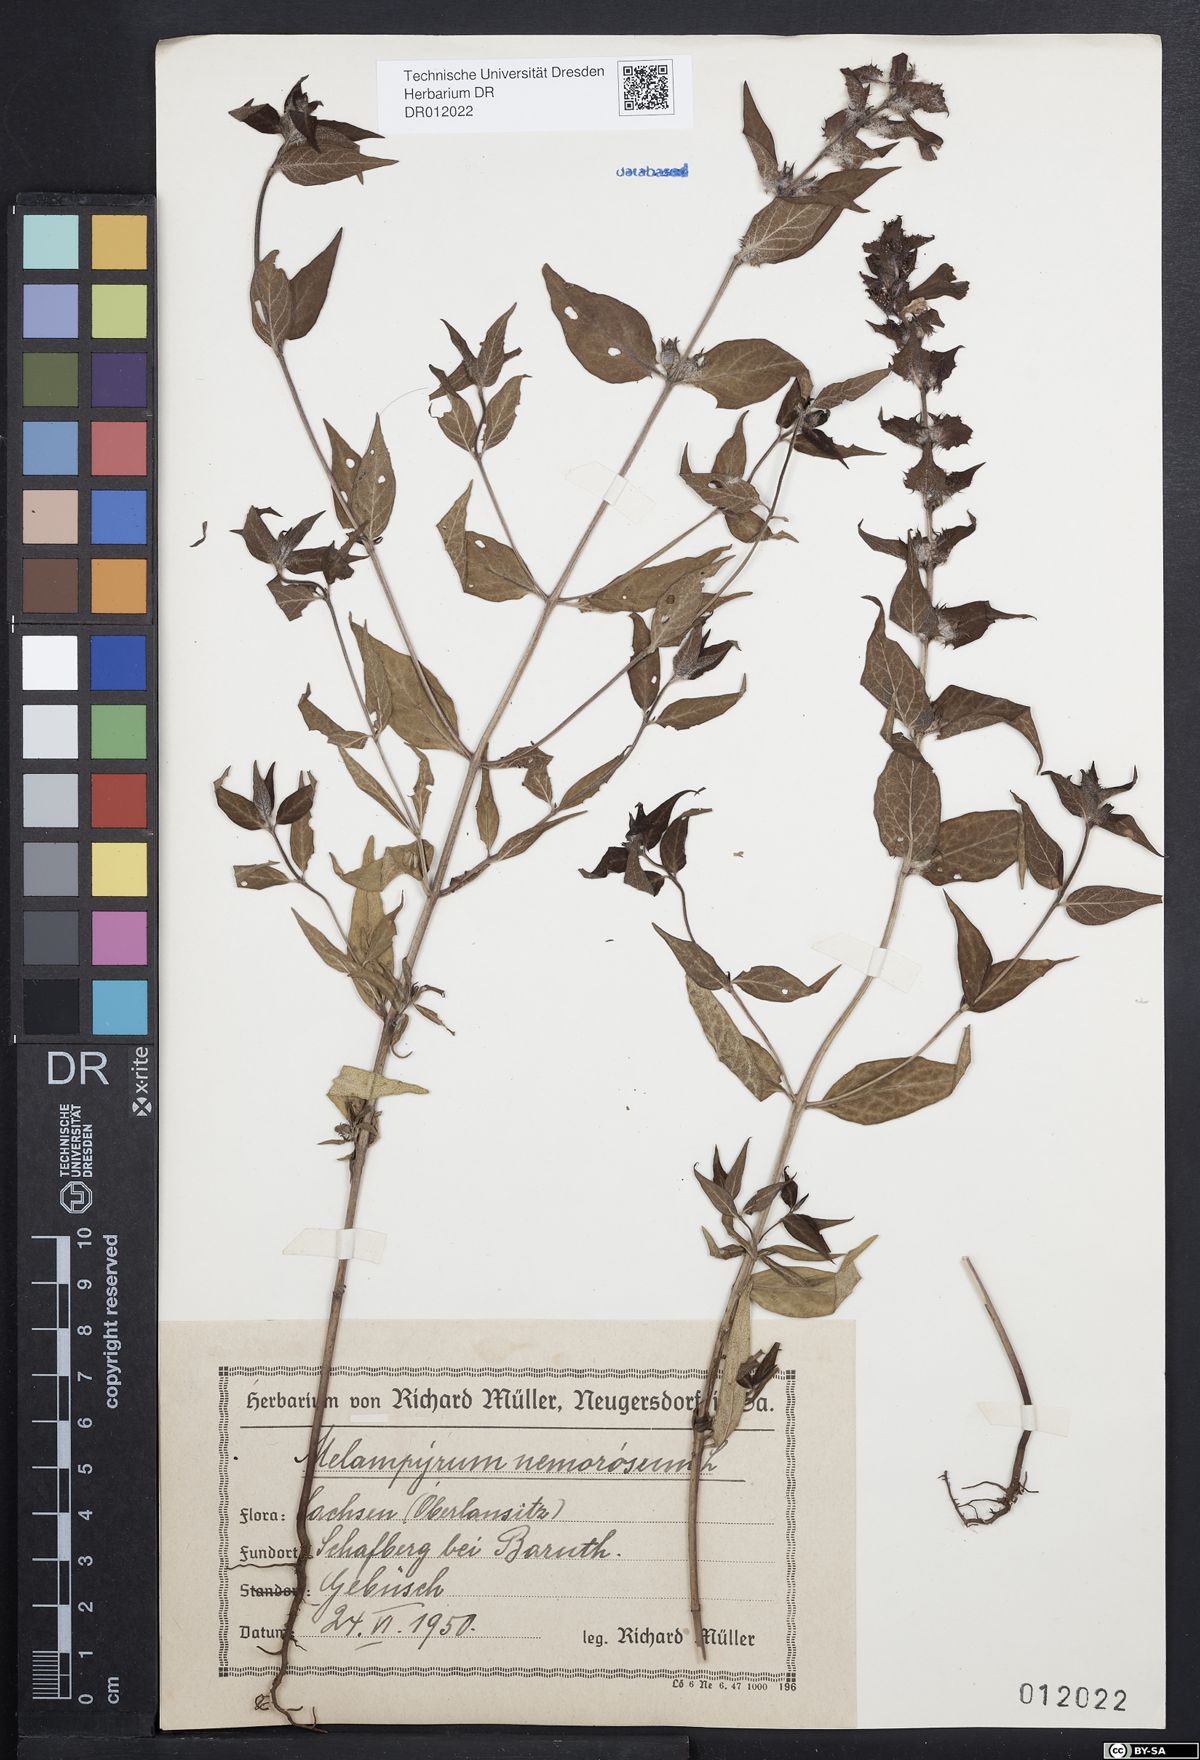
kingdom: Plantae
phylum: Tracheophyta
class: Magnoliopsida
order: Lamiales
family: Orobanchaceae
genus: Melampyrum
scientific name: Melampyrum nemorosum
